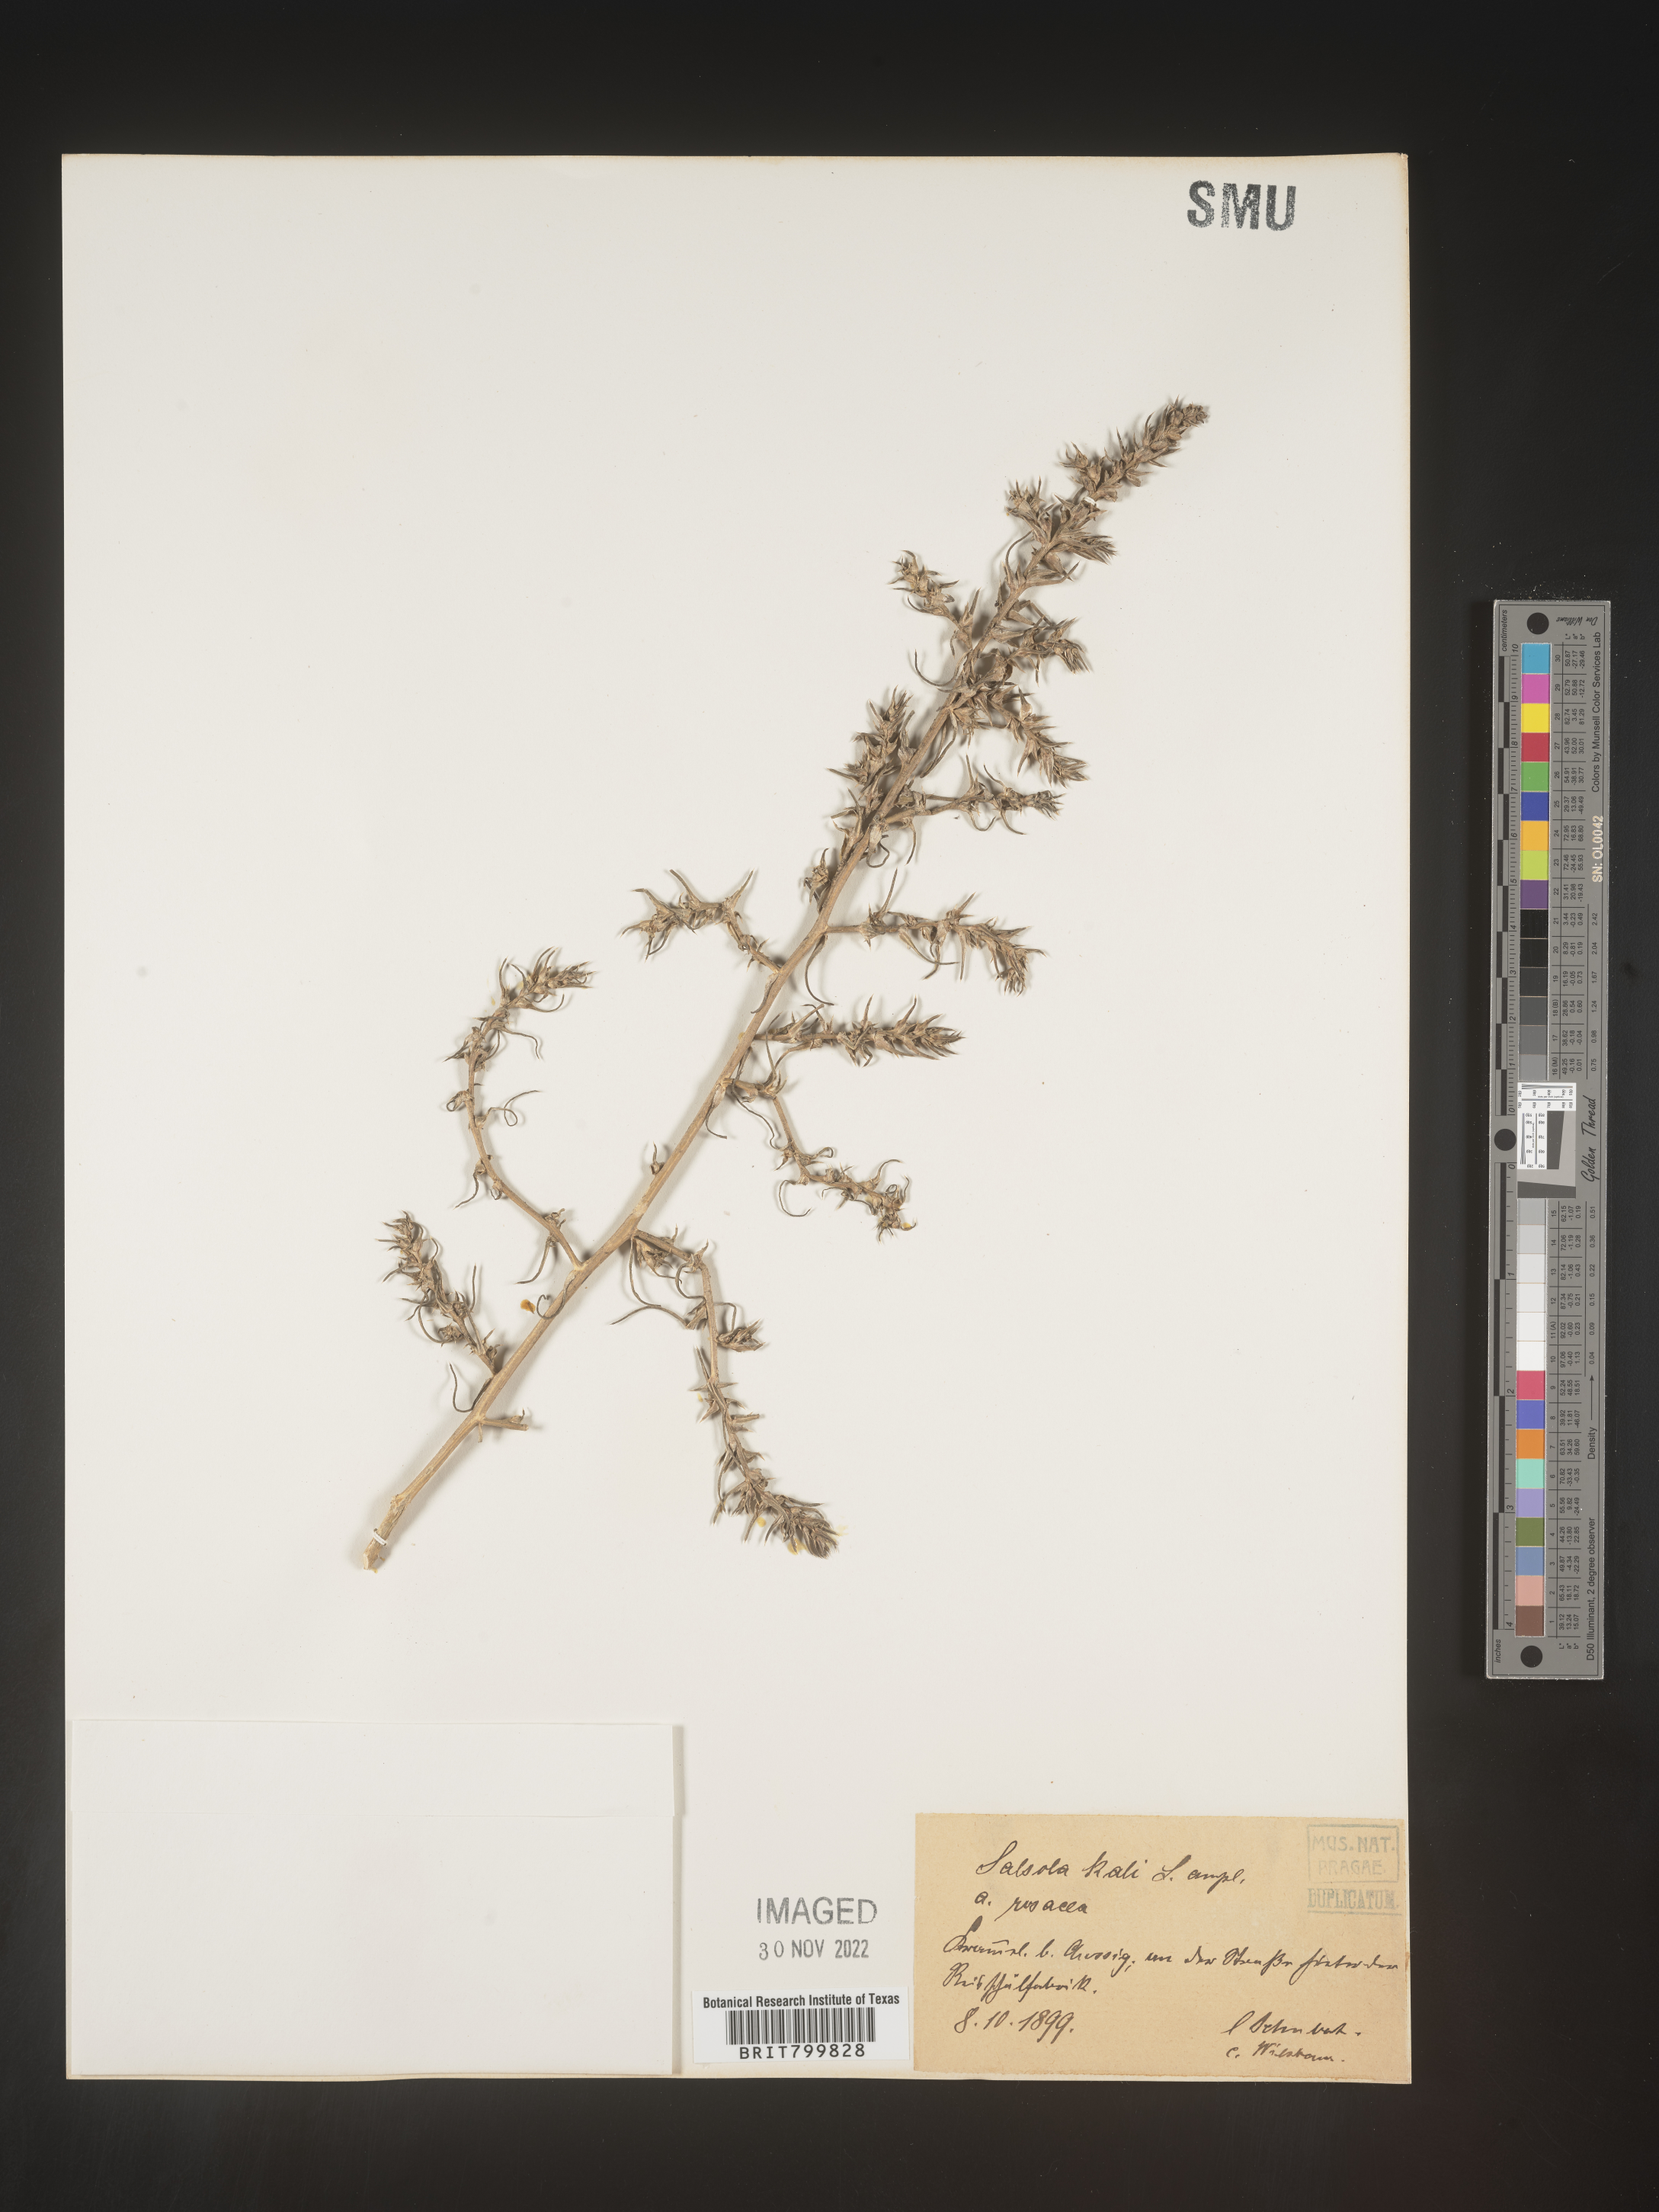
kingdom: Plantae
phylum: Tracheophyta
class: Magnoliopsida
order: Caryophyllales
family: Amaranthaceae
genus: Salsola
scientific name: Salsola
